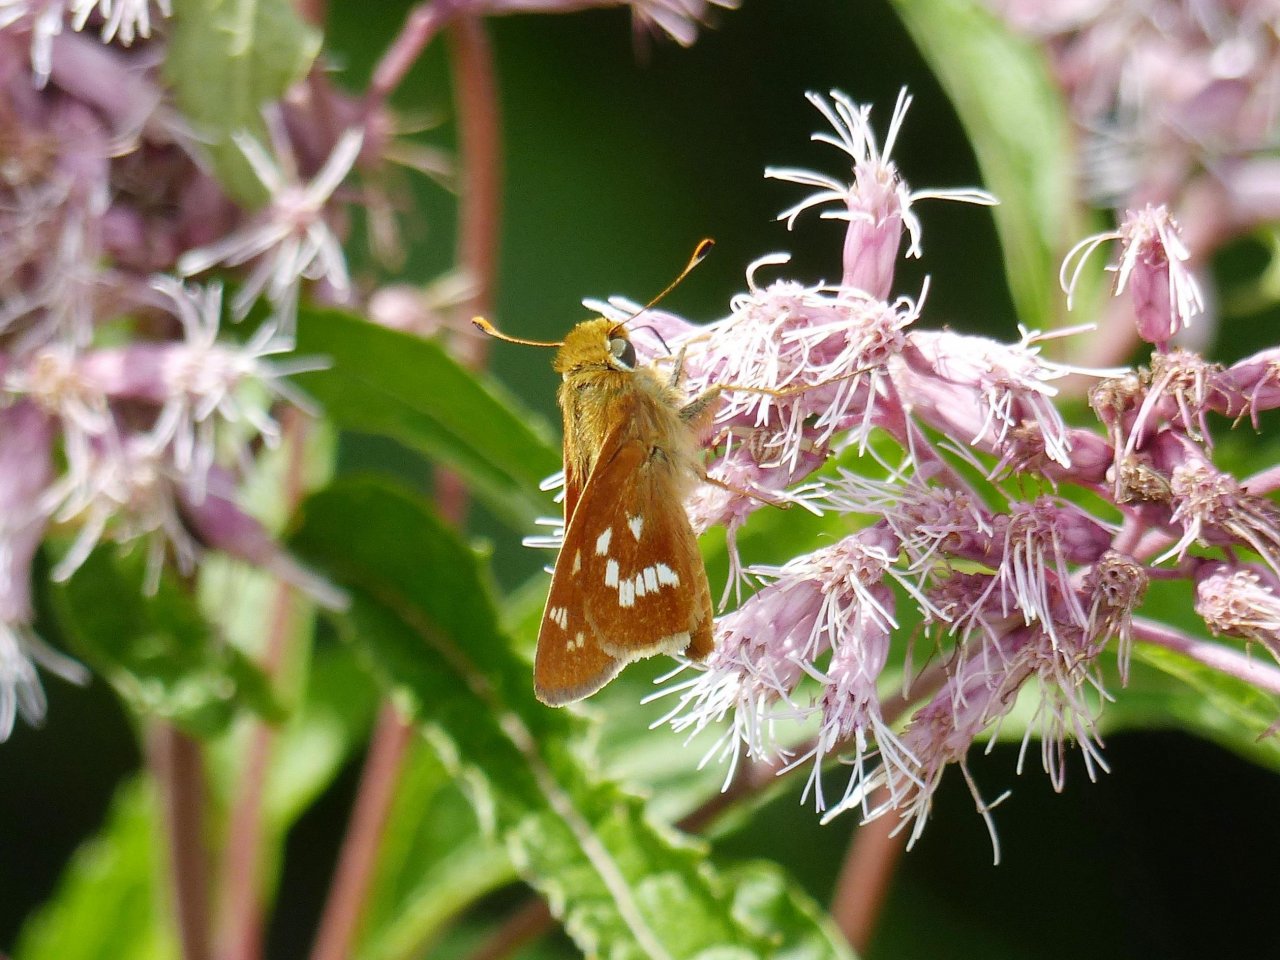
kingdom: Animalia
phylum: Arthropoda
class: Insecta
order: Lepidoptera
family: Hesperiidae
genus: Hesperia
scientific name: Hesperia leonardus
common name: Leonard's Skipper
